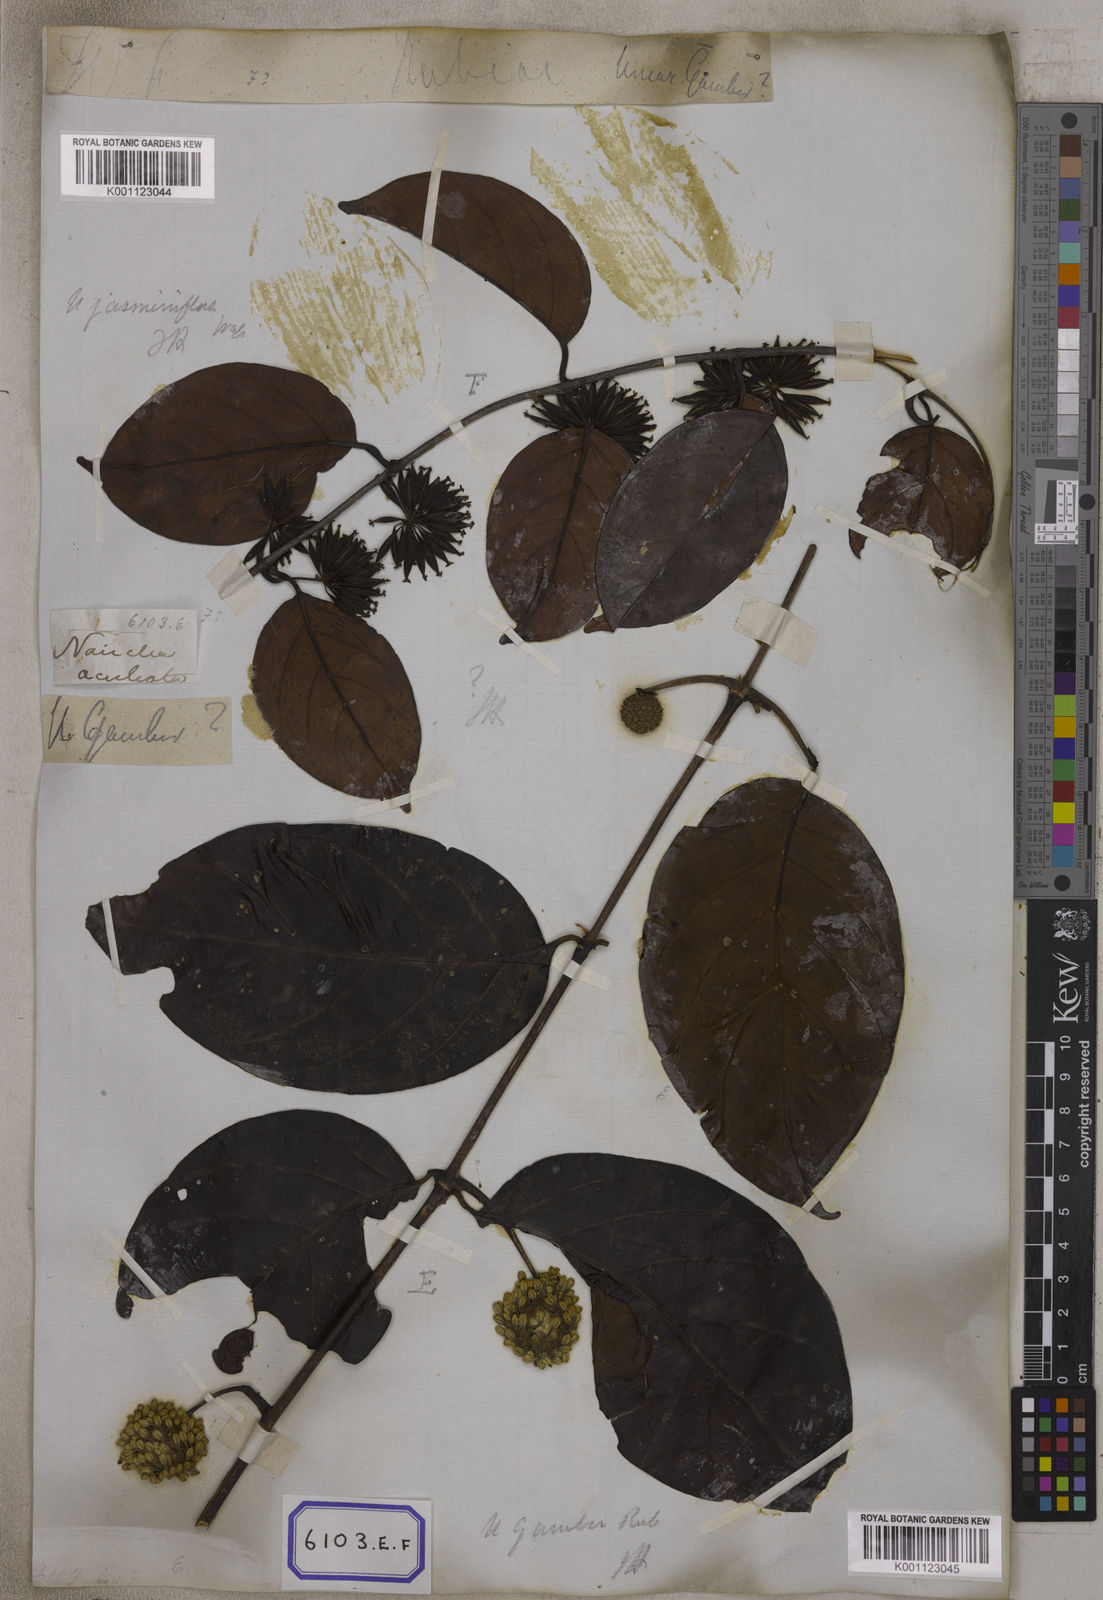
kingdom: Plantae
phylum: Tracheophyta
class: Magnoliopsida
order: Gentianales
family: Rubiaceae
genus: Uncaria
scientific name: Uncaria gambir
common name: Pale catechu
